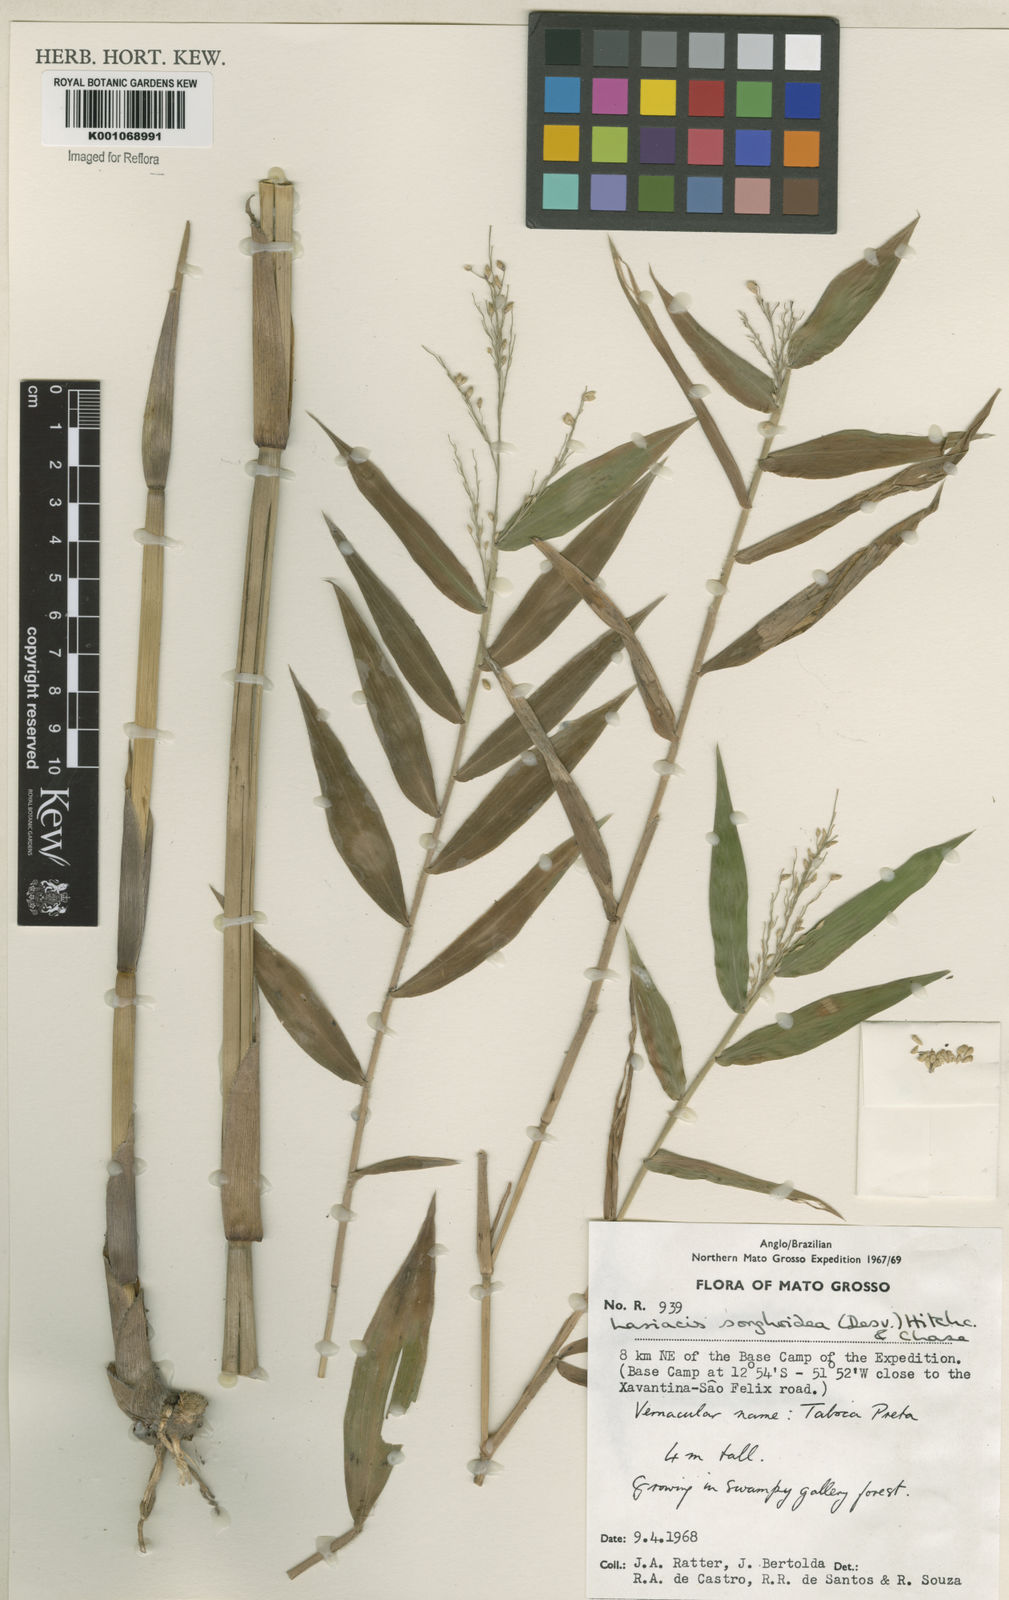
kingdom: Plantae
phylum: Tracheophyta
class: Liliopsida
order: Poales
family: Poaceae
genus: Lasiacis
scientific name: Lasiacis maculata
